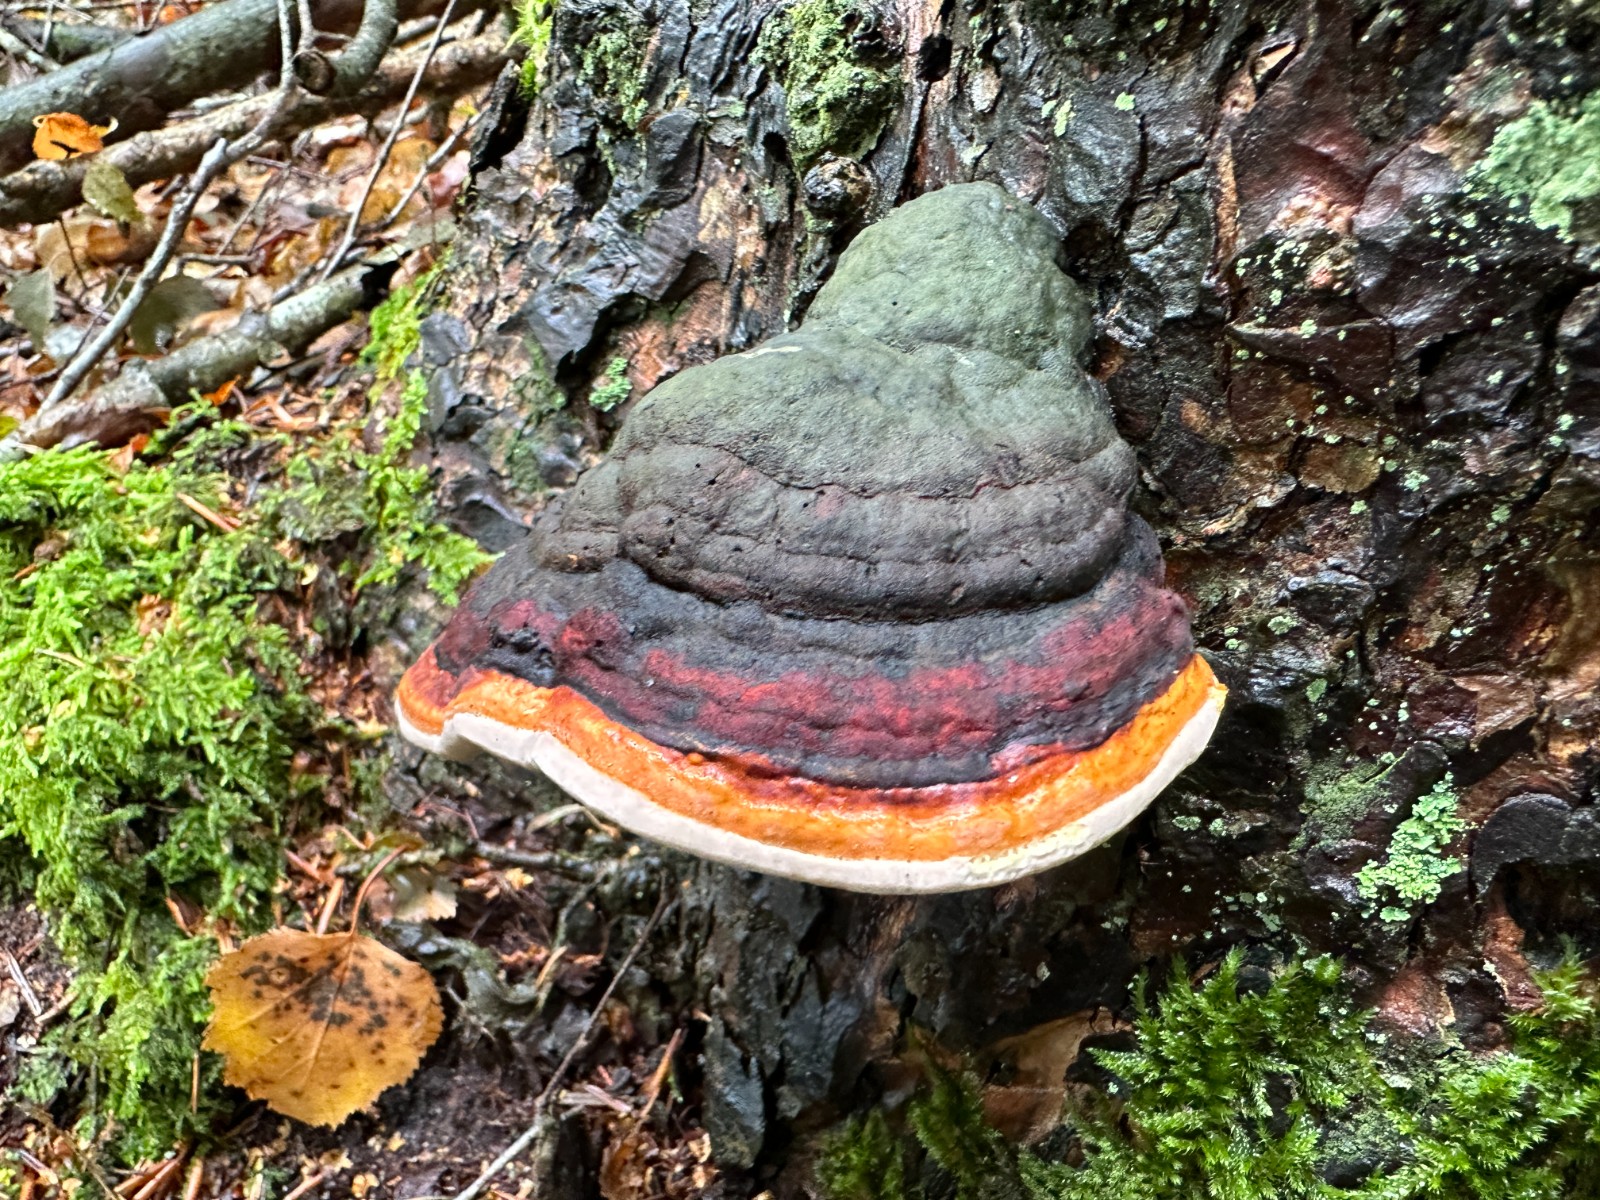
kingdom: Fungi
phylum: Basidiomycota
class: Agaricomycetes
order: Polyporales
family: Fomitopsidaceae
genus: Fomitopsis
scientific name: Fomitopsis pinicola
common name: randbæltet hovporesvamp
